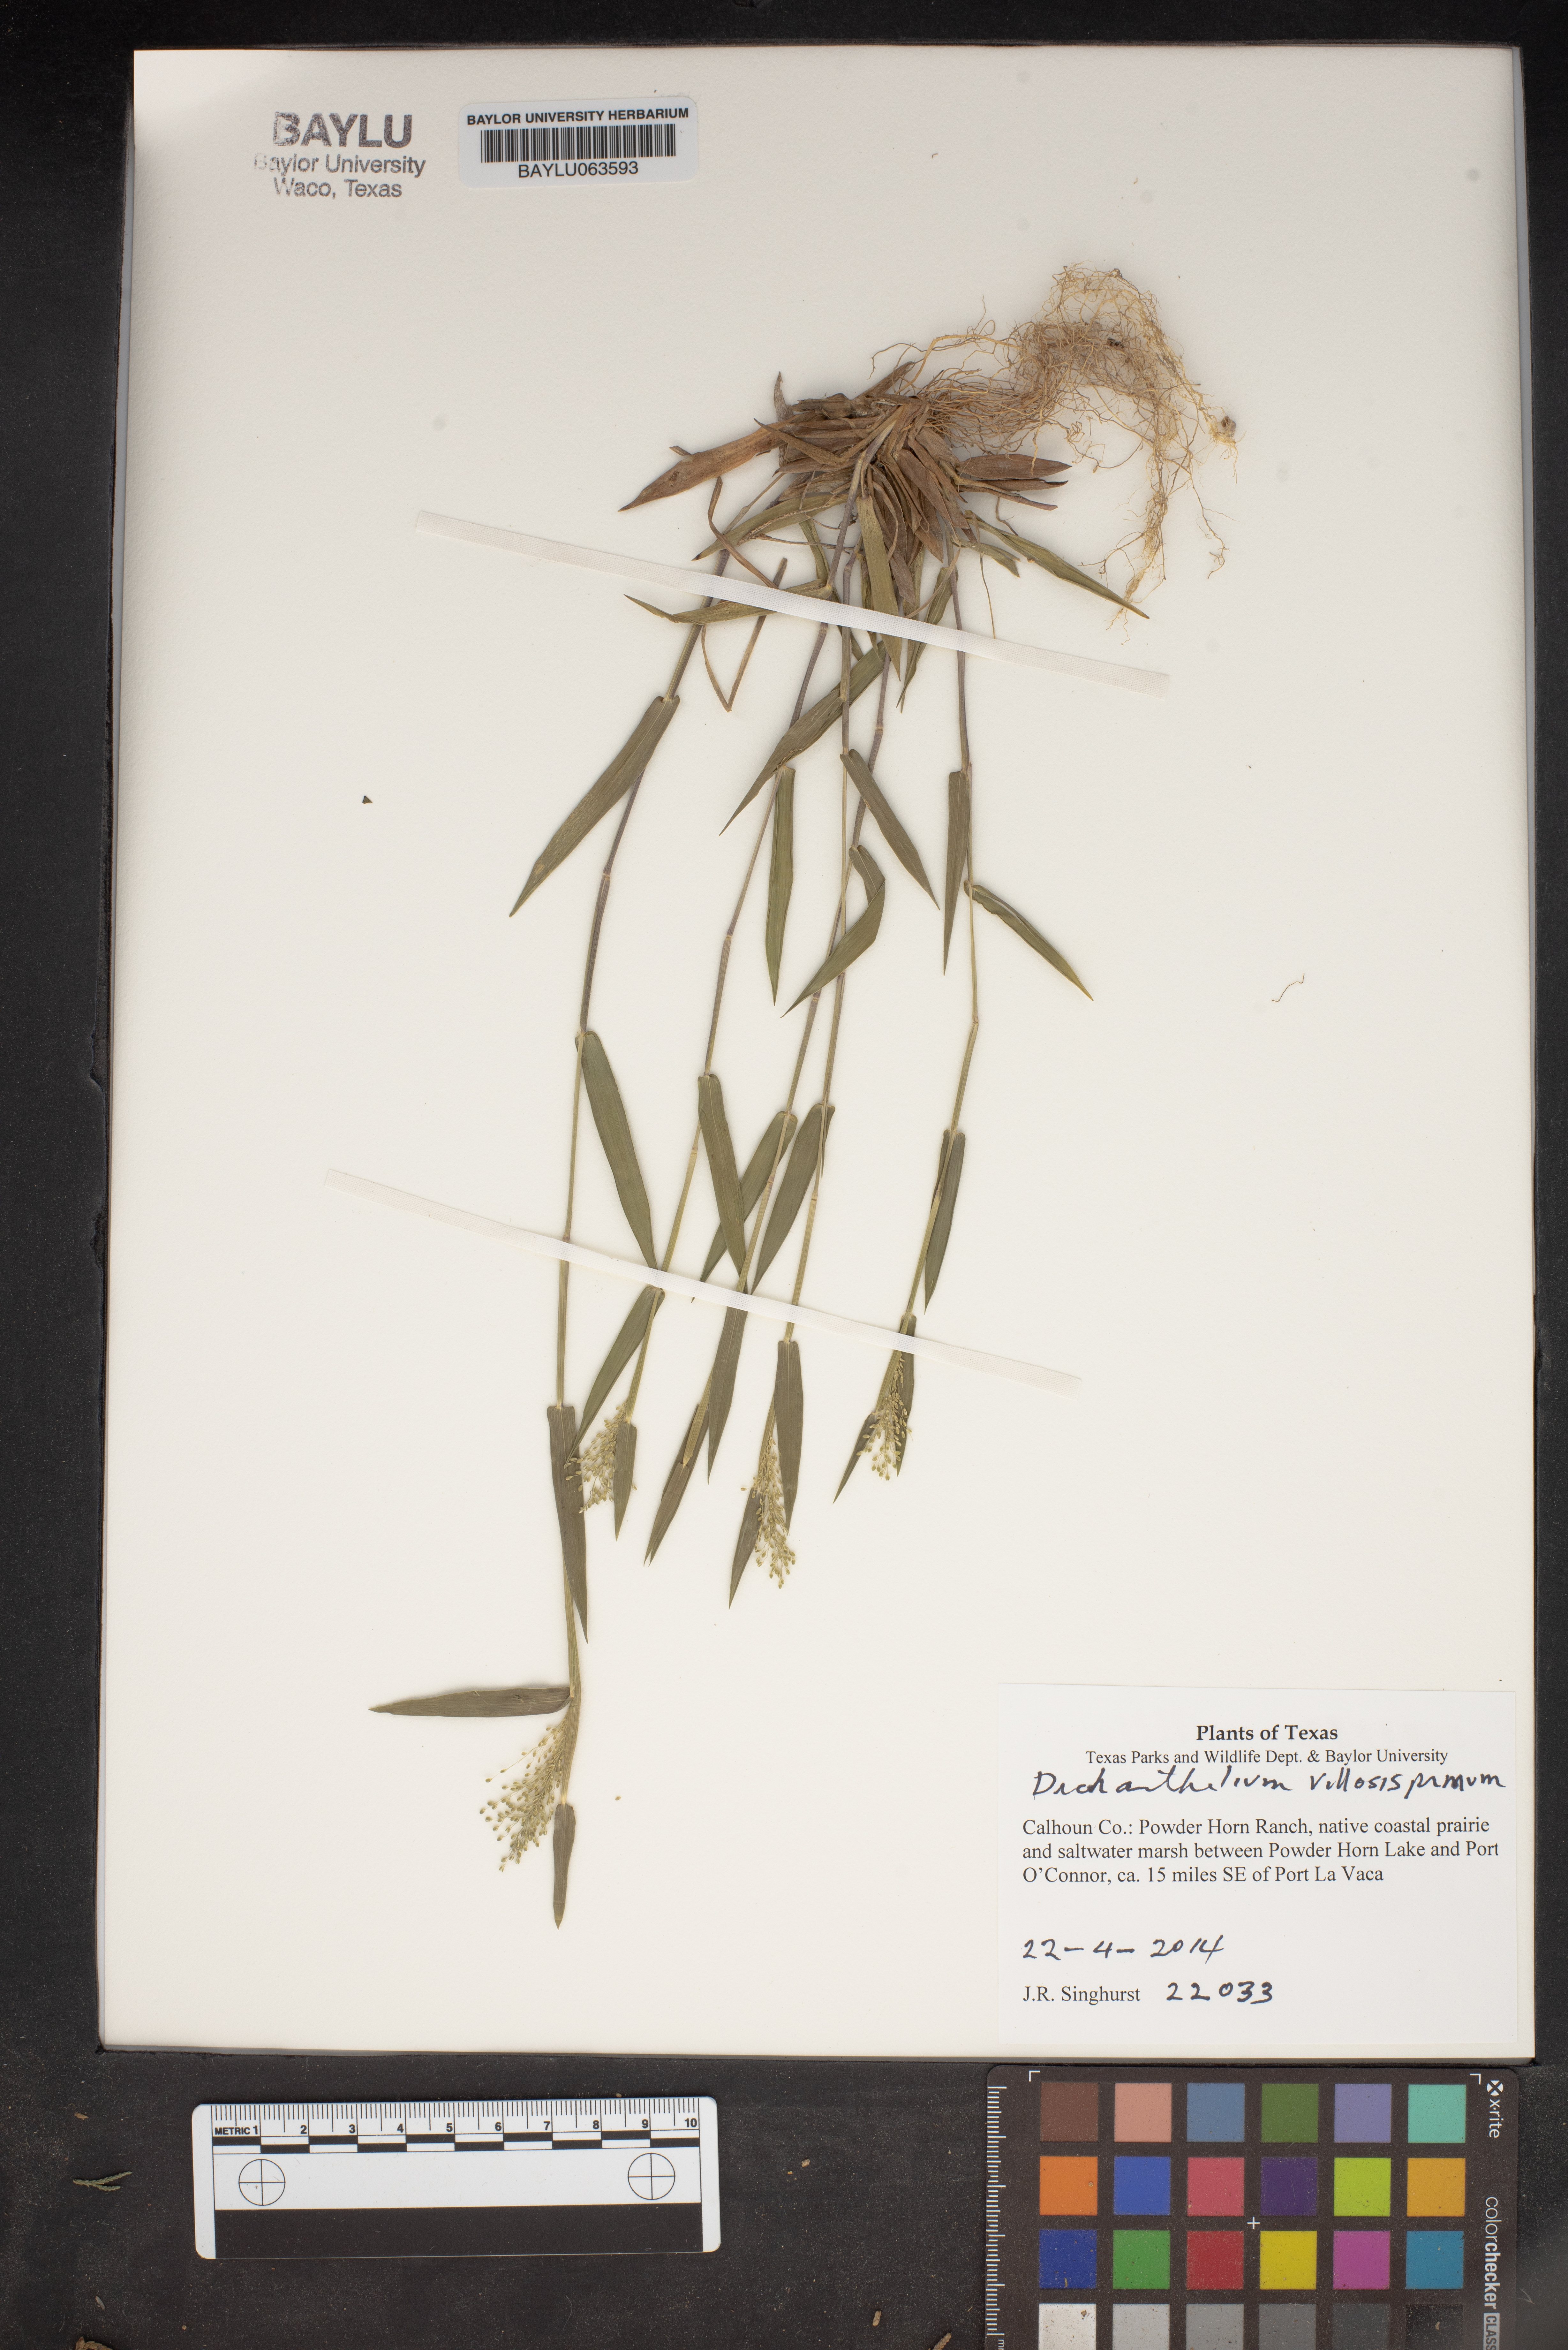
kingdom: Plantae
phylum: Tracheophyta
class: Liliopsida
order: Poales
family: Poaceae
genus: Dichanthelium
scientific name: Dichanthelium villosissimum
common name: White-haired panicgrass
